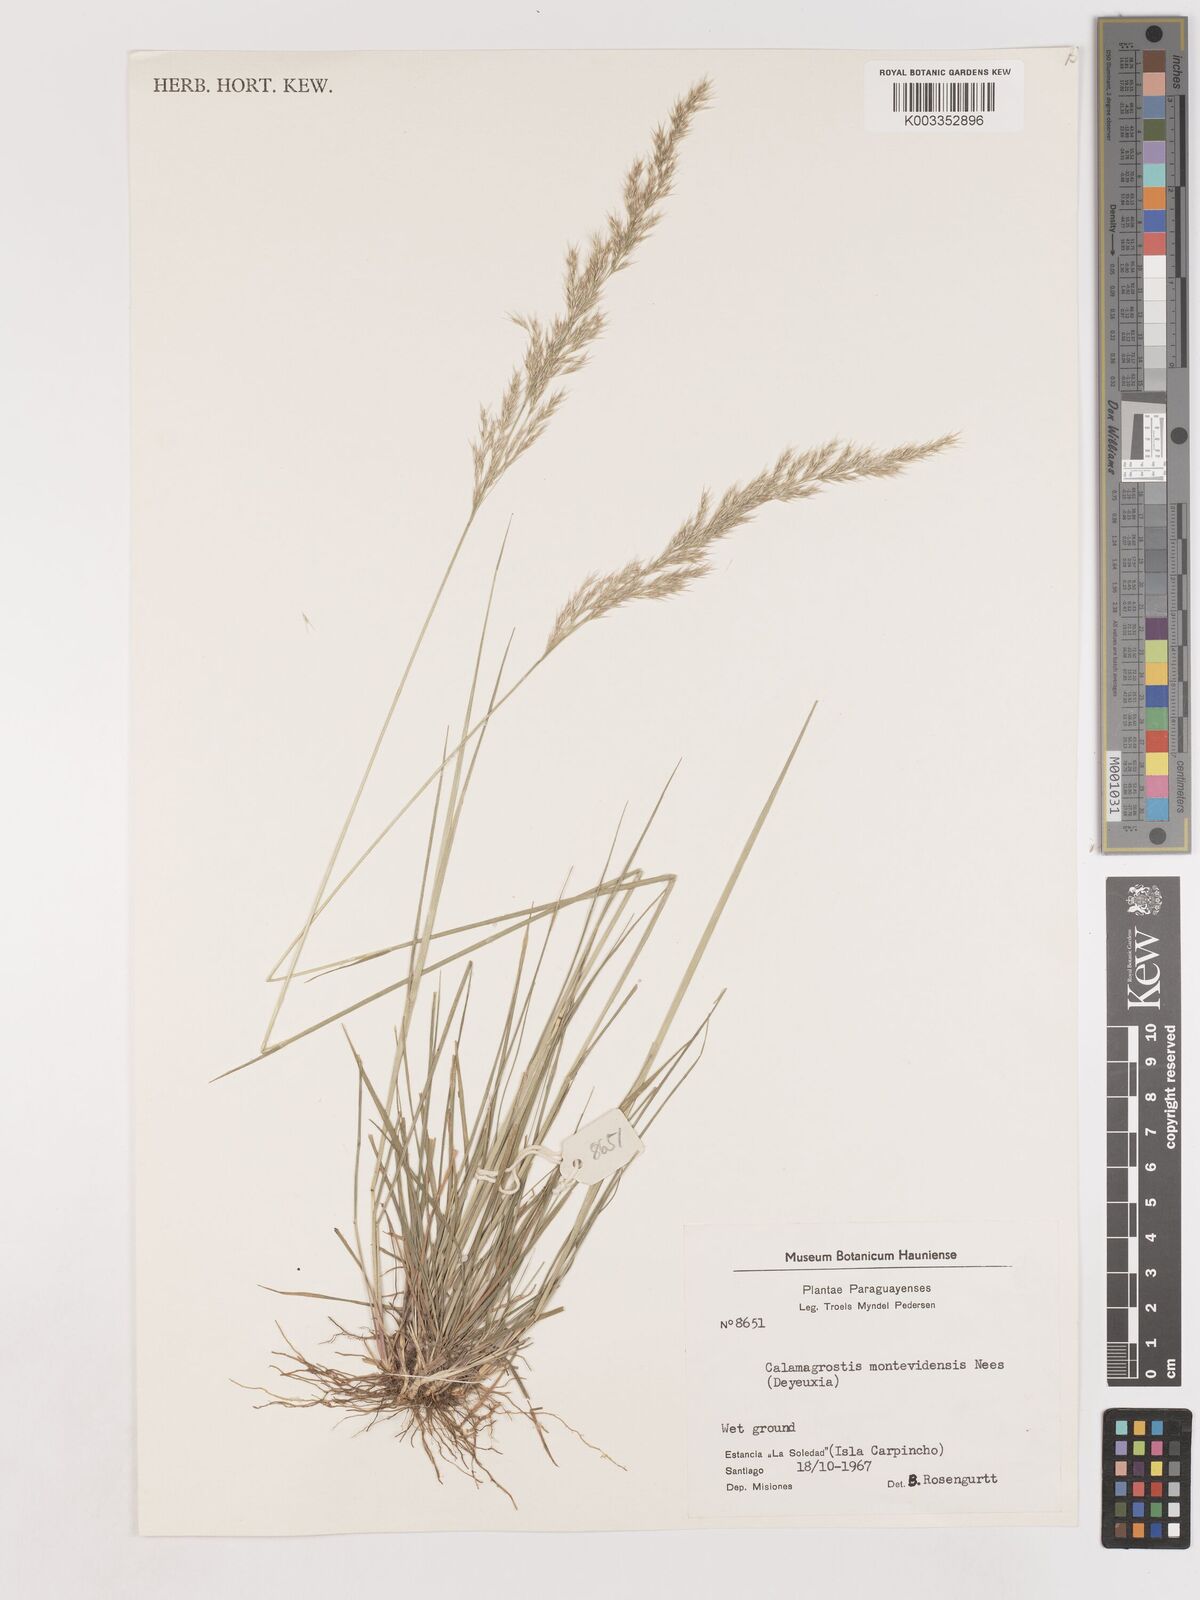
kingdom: Plantae
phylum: Tracheophyta
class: Liliopsida
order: Poales
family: Poaceae
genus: Cinnagrostis
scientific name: Cinnagrostis viridiflavescens
